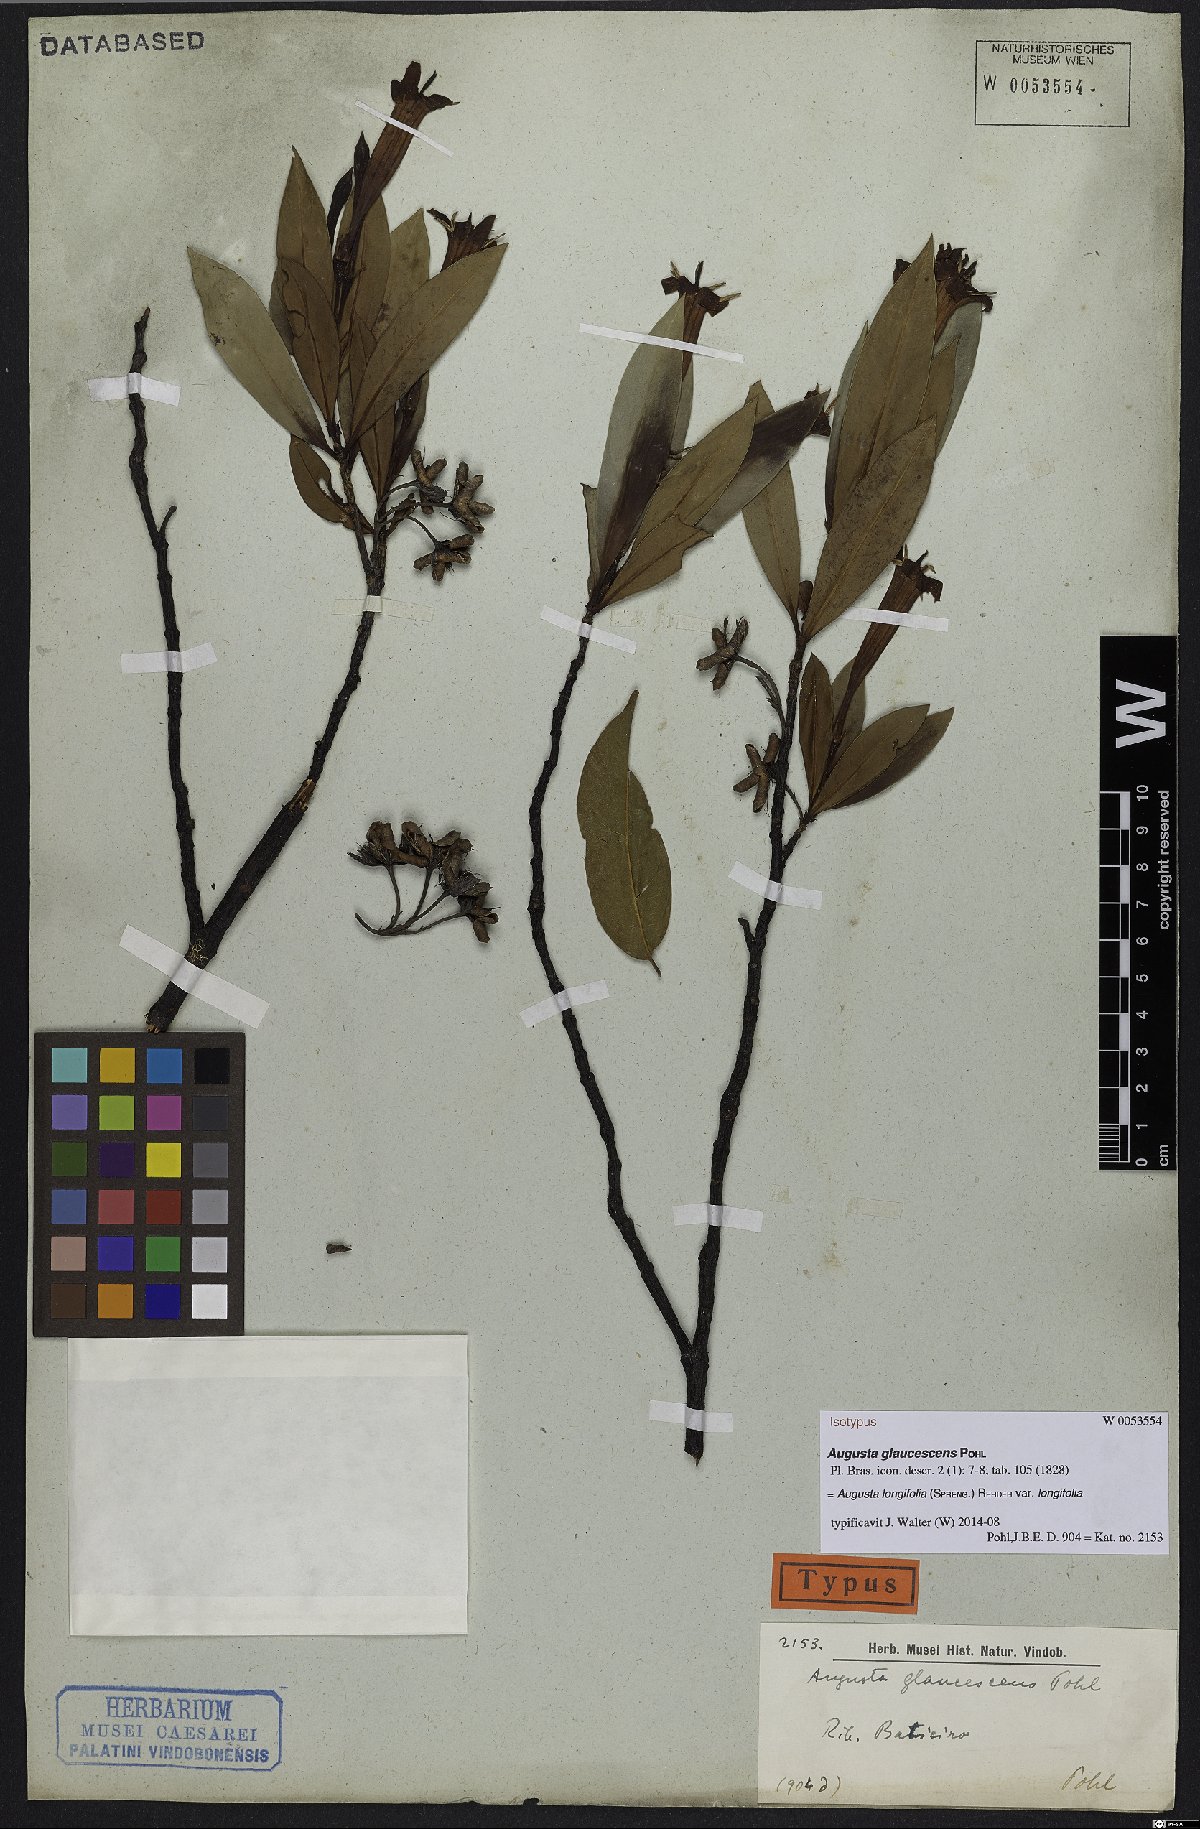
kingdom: Plantae
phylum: Tracheophyta
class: Magnoliopsida
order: Gentianales
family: Rubiaceae
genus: Augusta
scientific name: Augusta longifolia
